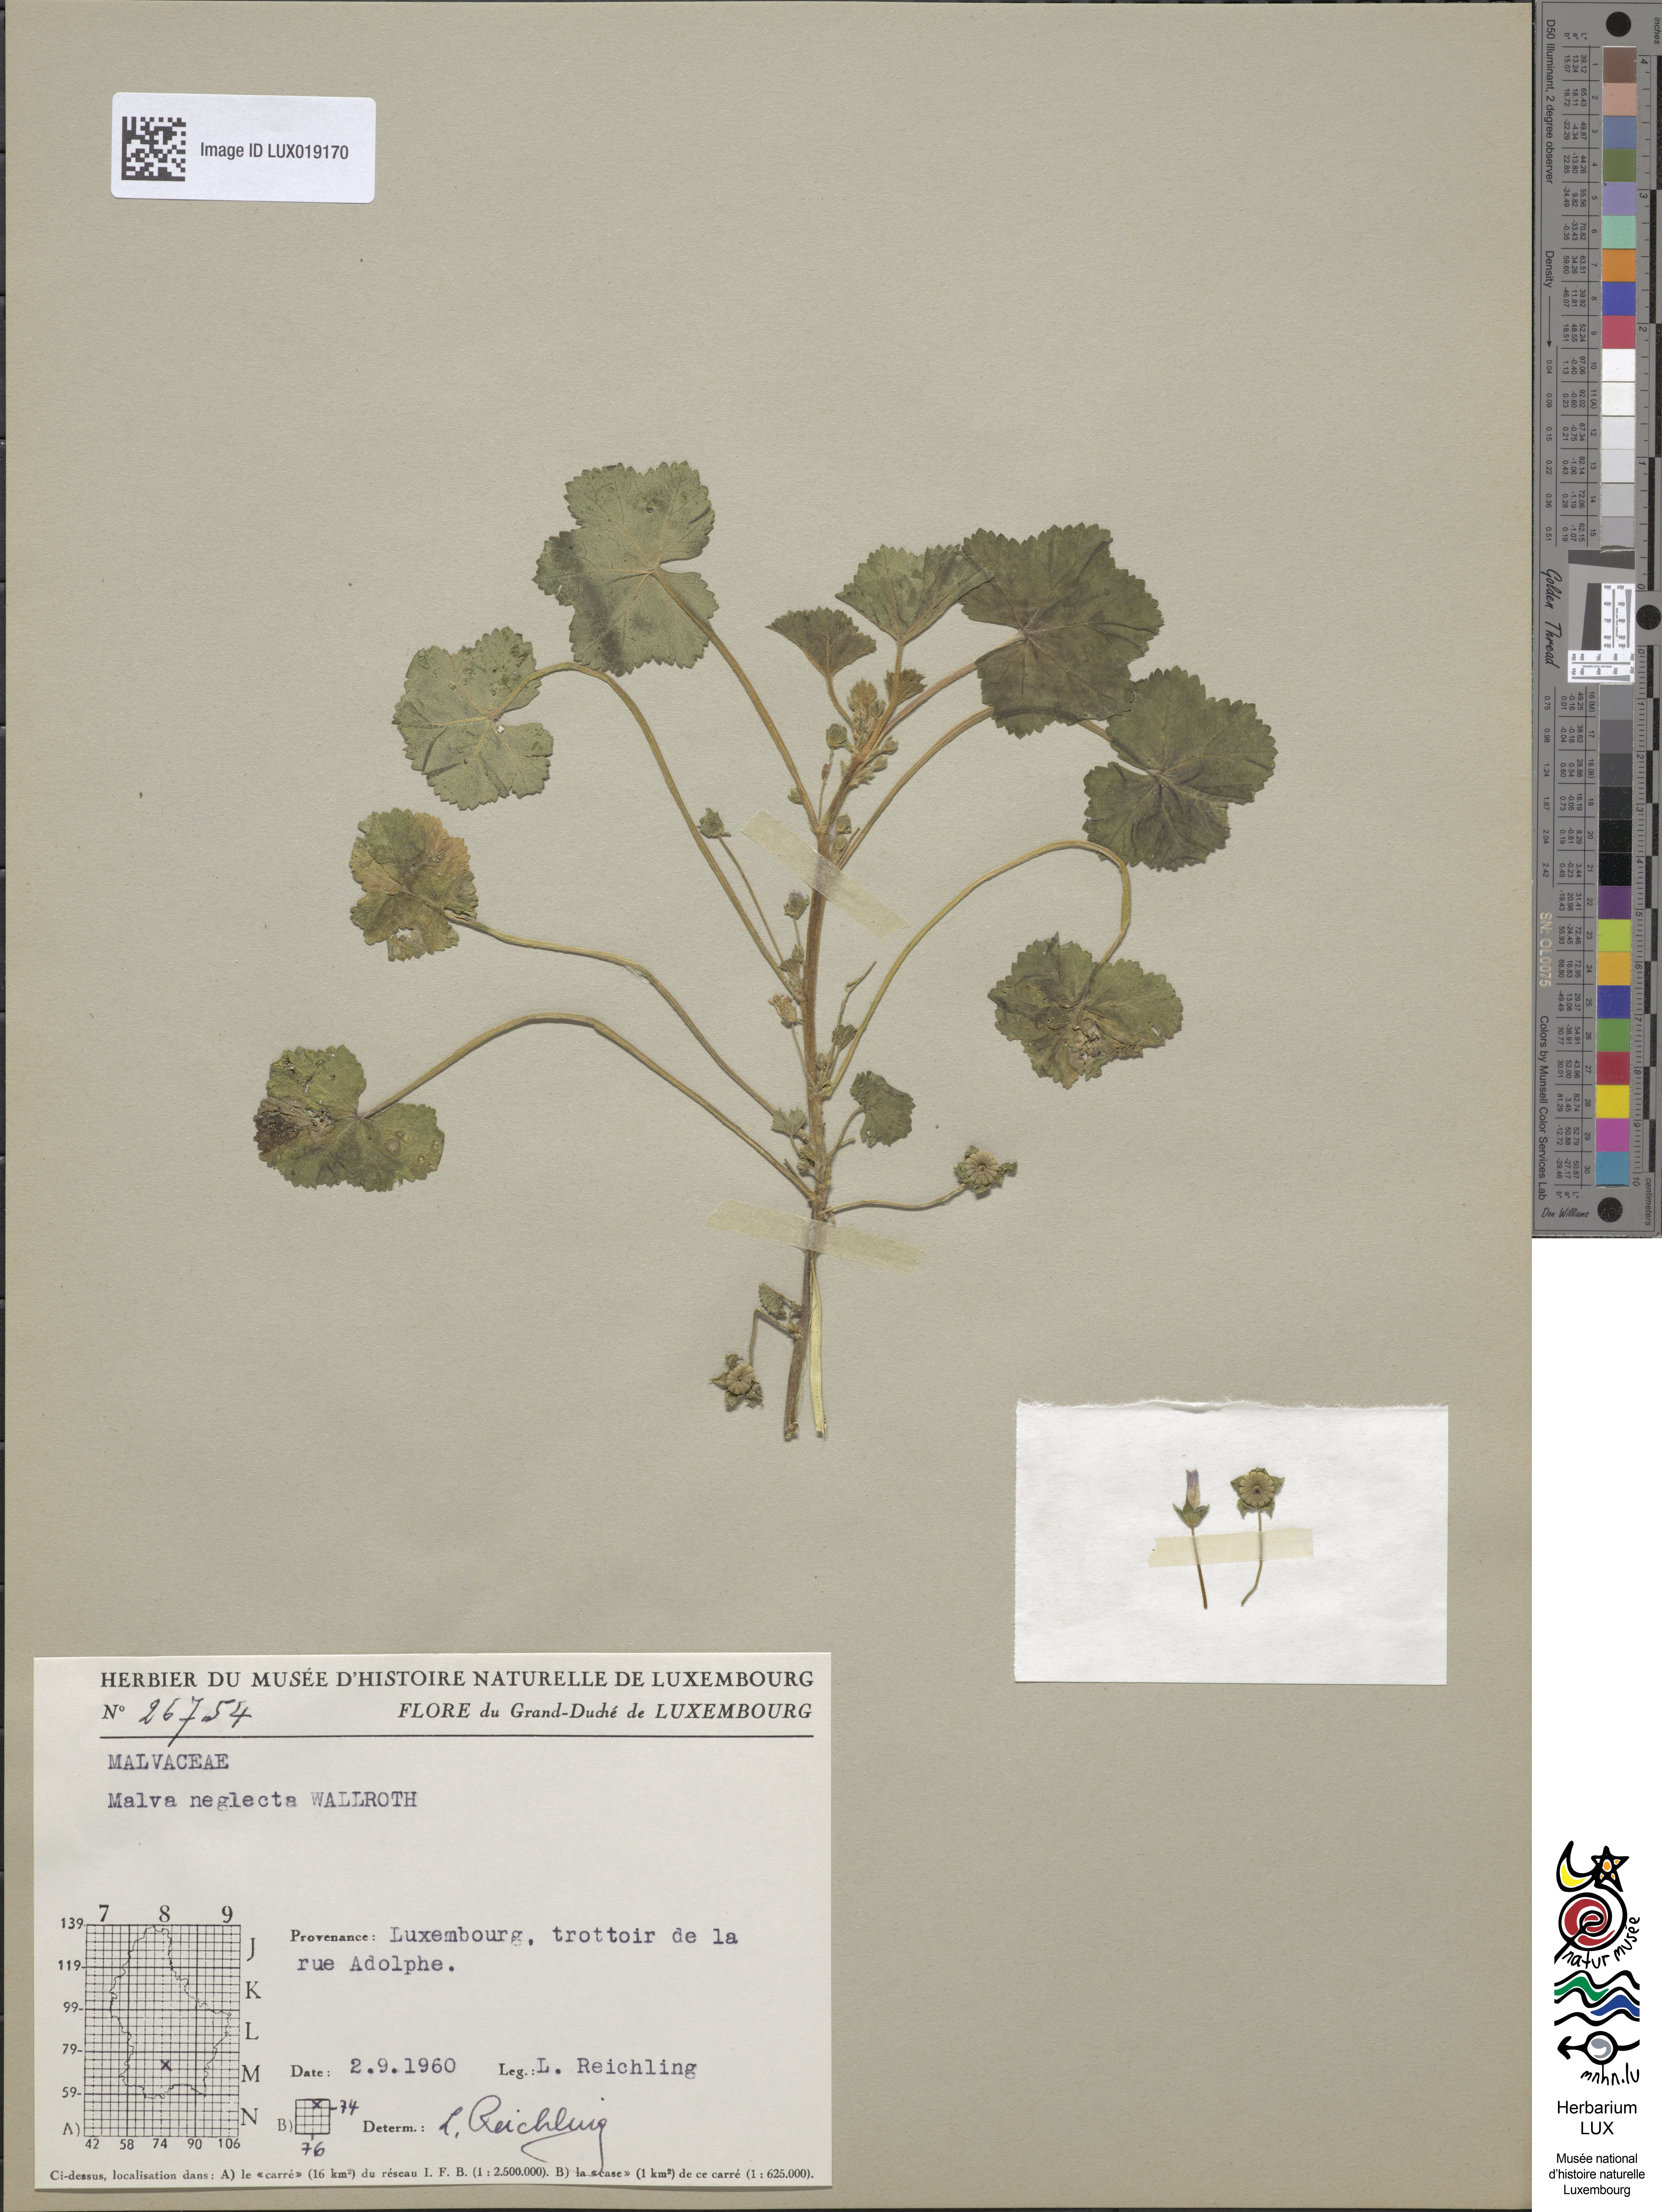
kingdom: Plantae
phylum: Tracheophyta
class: Magnoliopsida
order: Malvales
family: Malvaceae
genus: Malva
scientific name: Malva neglecta
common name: Common mallow
